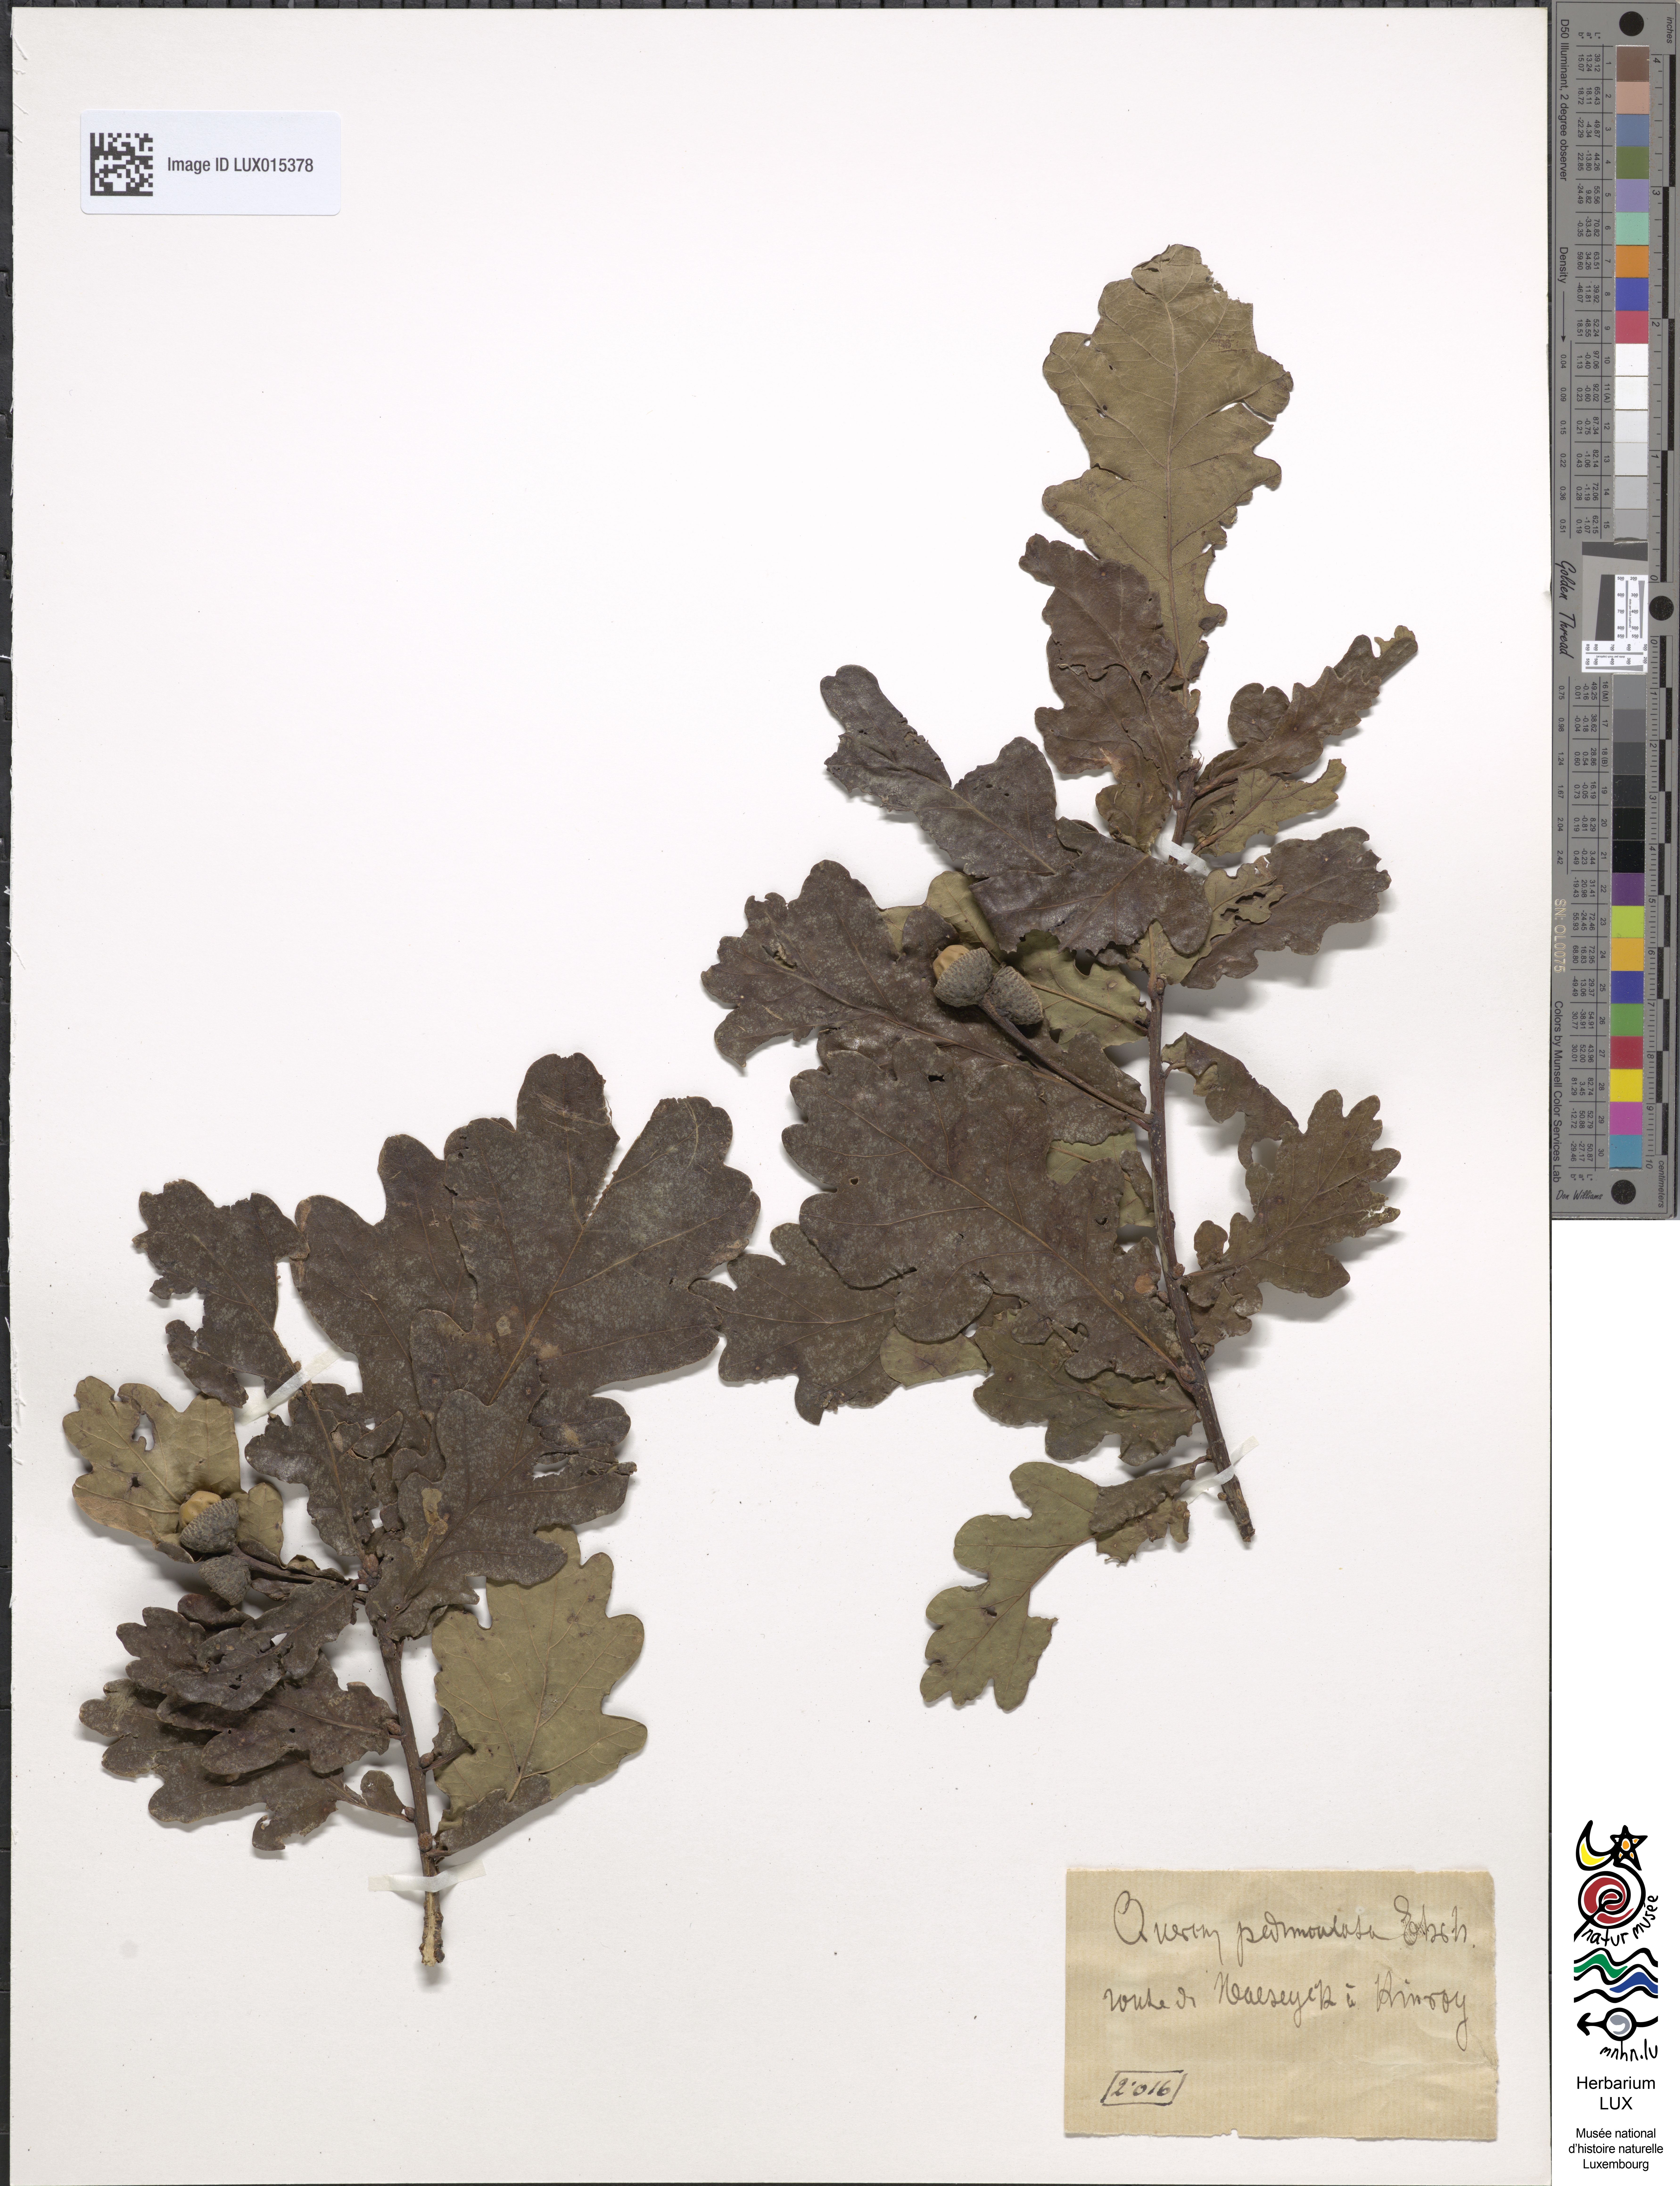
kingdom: Plantae
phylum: Tracheophyta
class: Magnoliopsida
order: Fagales
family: Fagaceae
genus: Quercus
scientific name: Quercus robur
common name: Pedunculate oak
